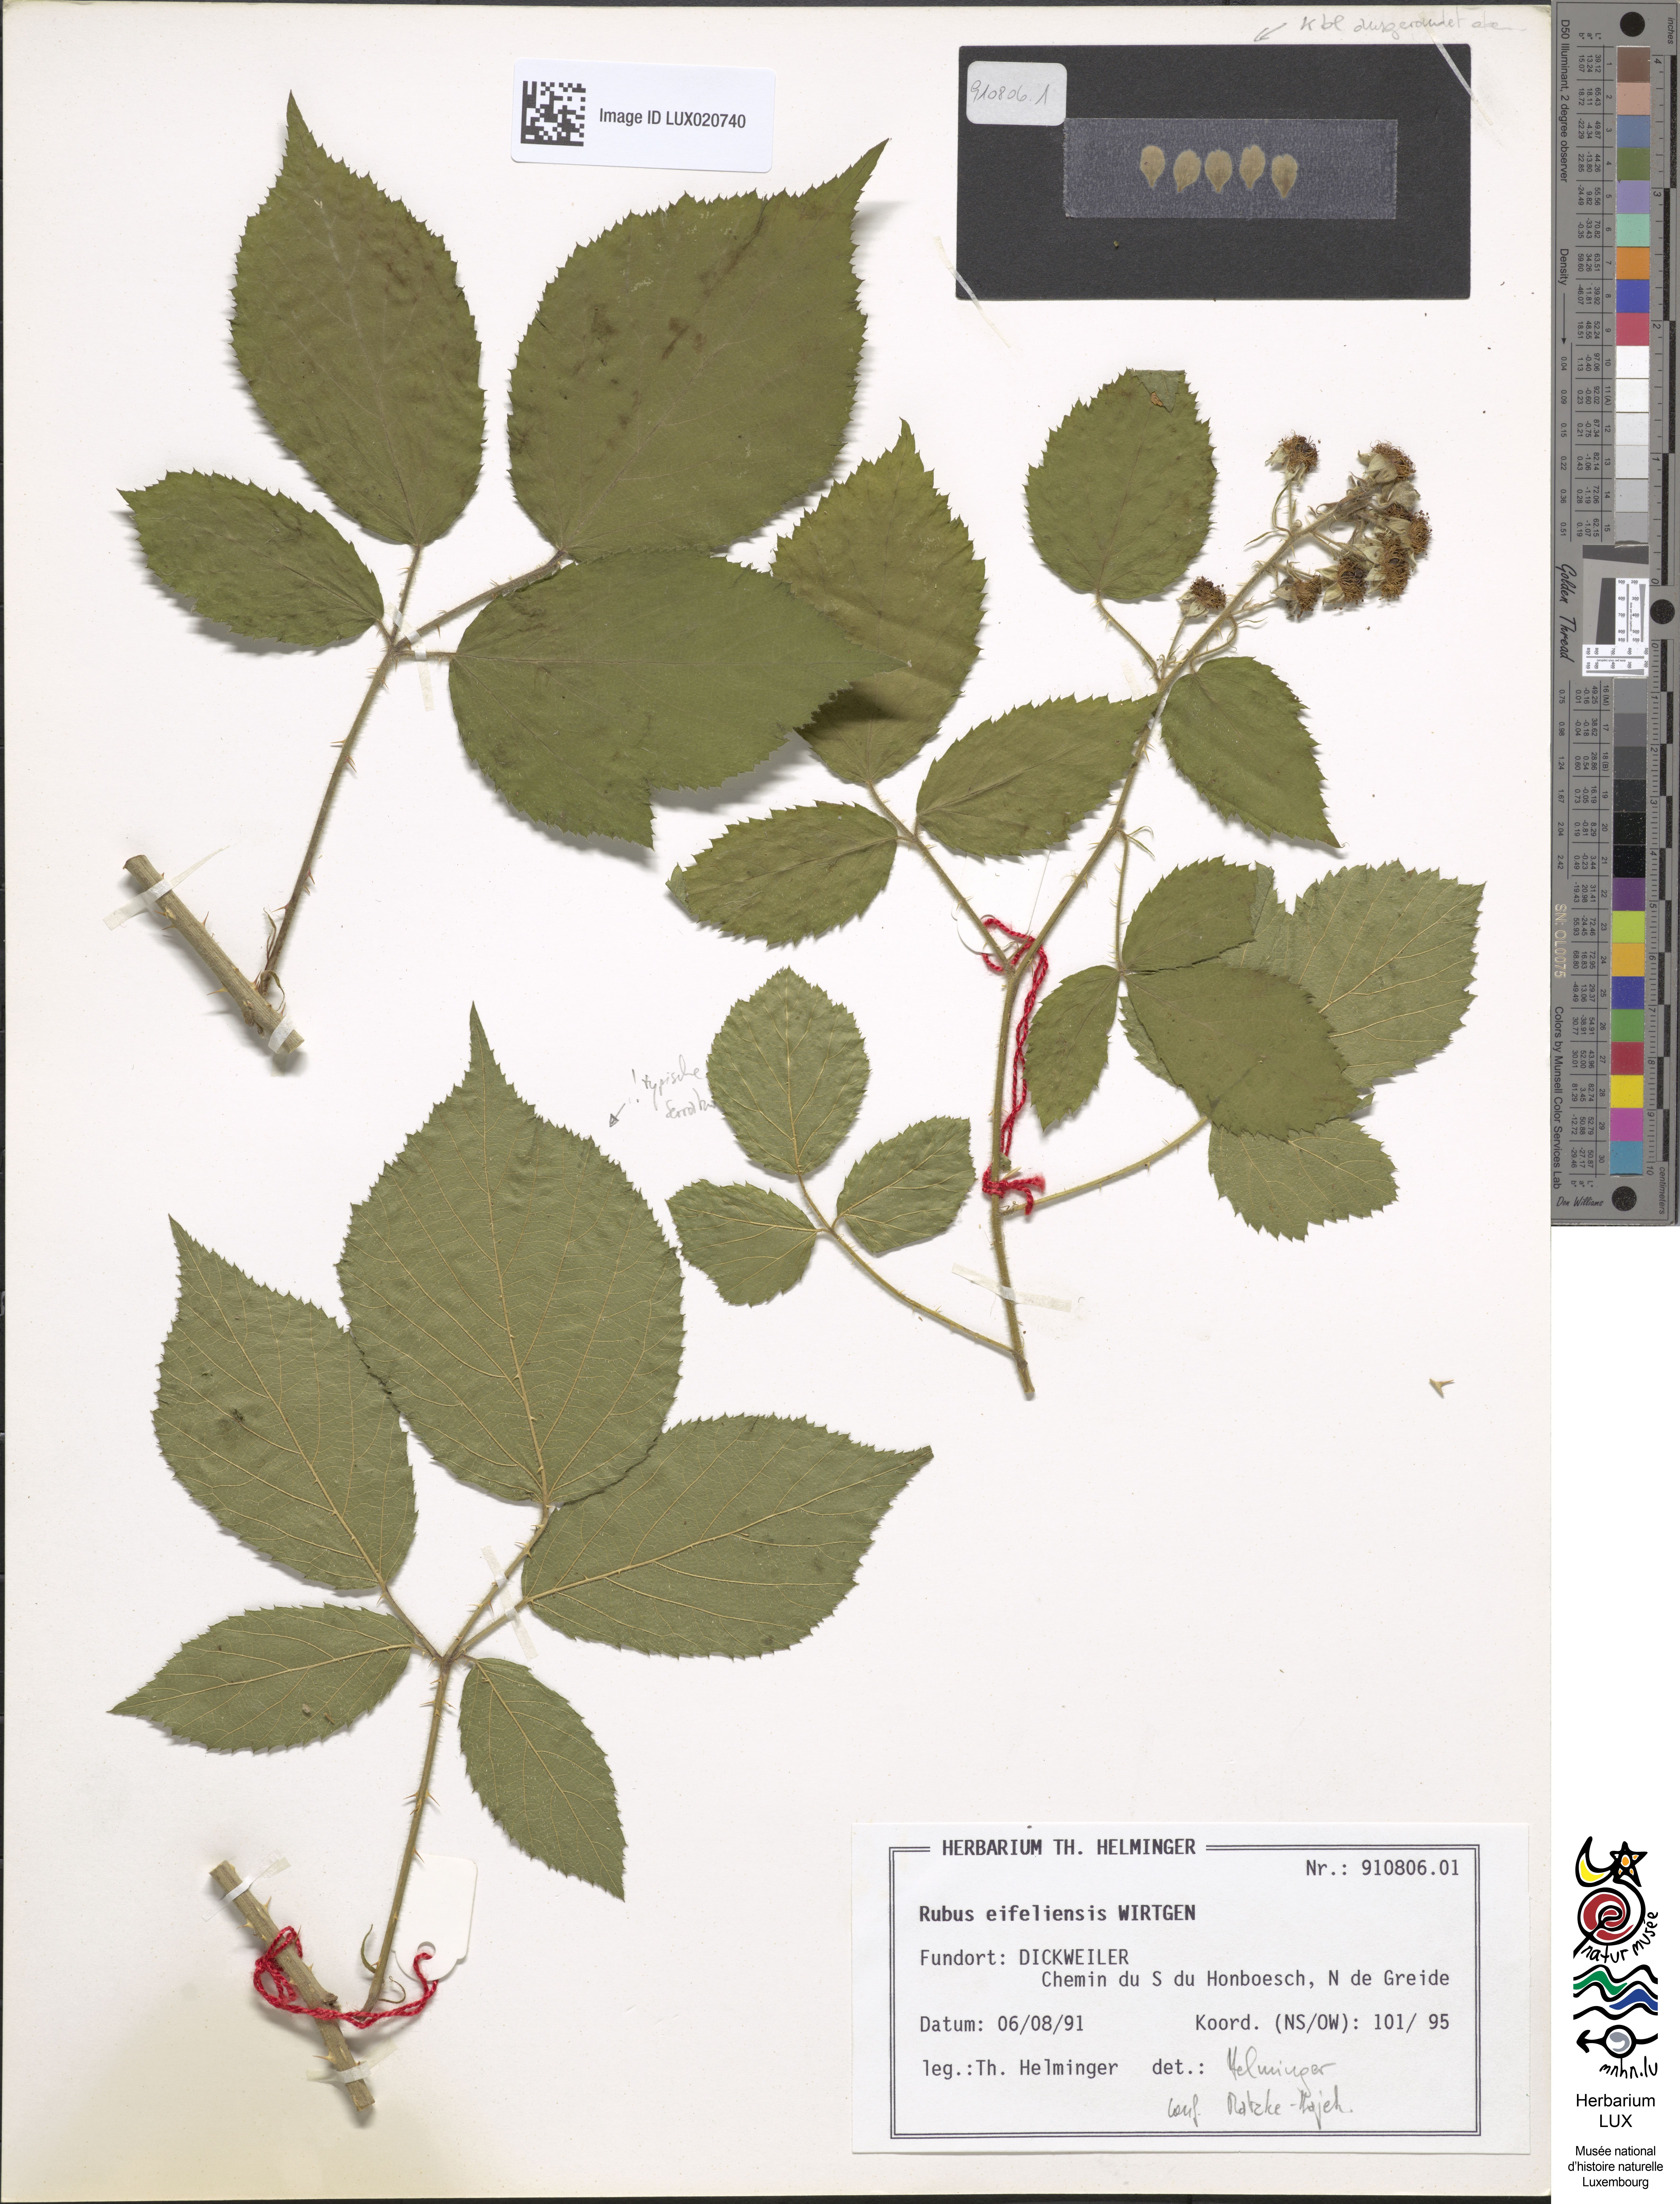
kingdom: Plantae
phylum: Tracheophyta
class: Magnoliopsida
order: Rosales
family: Rosaceae
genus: Rubus
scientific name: Rubus eifeliensis
